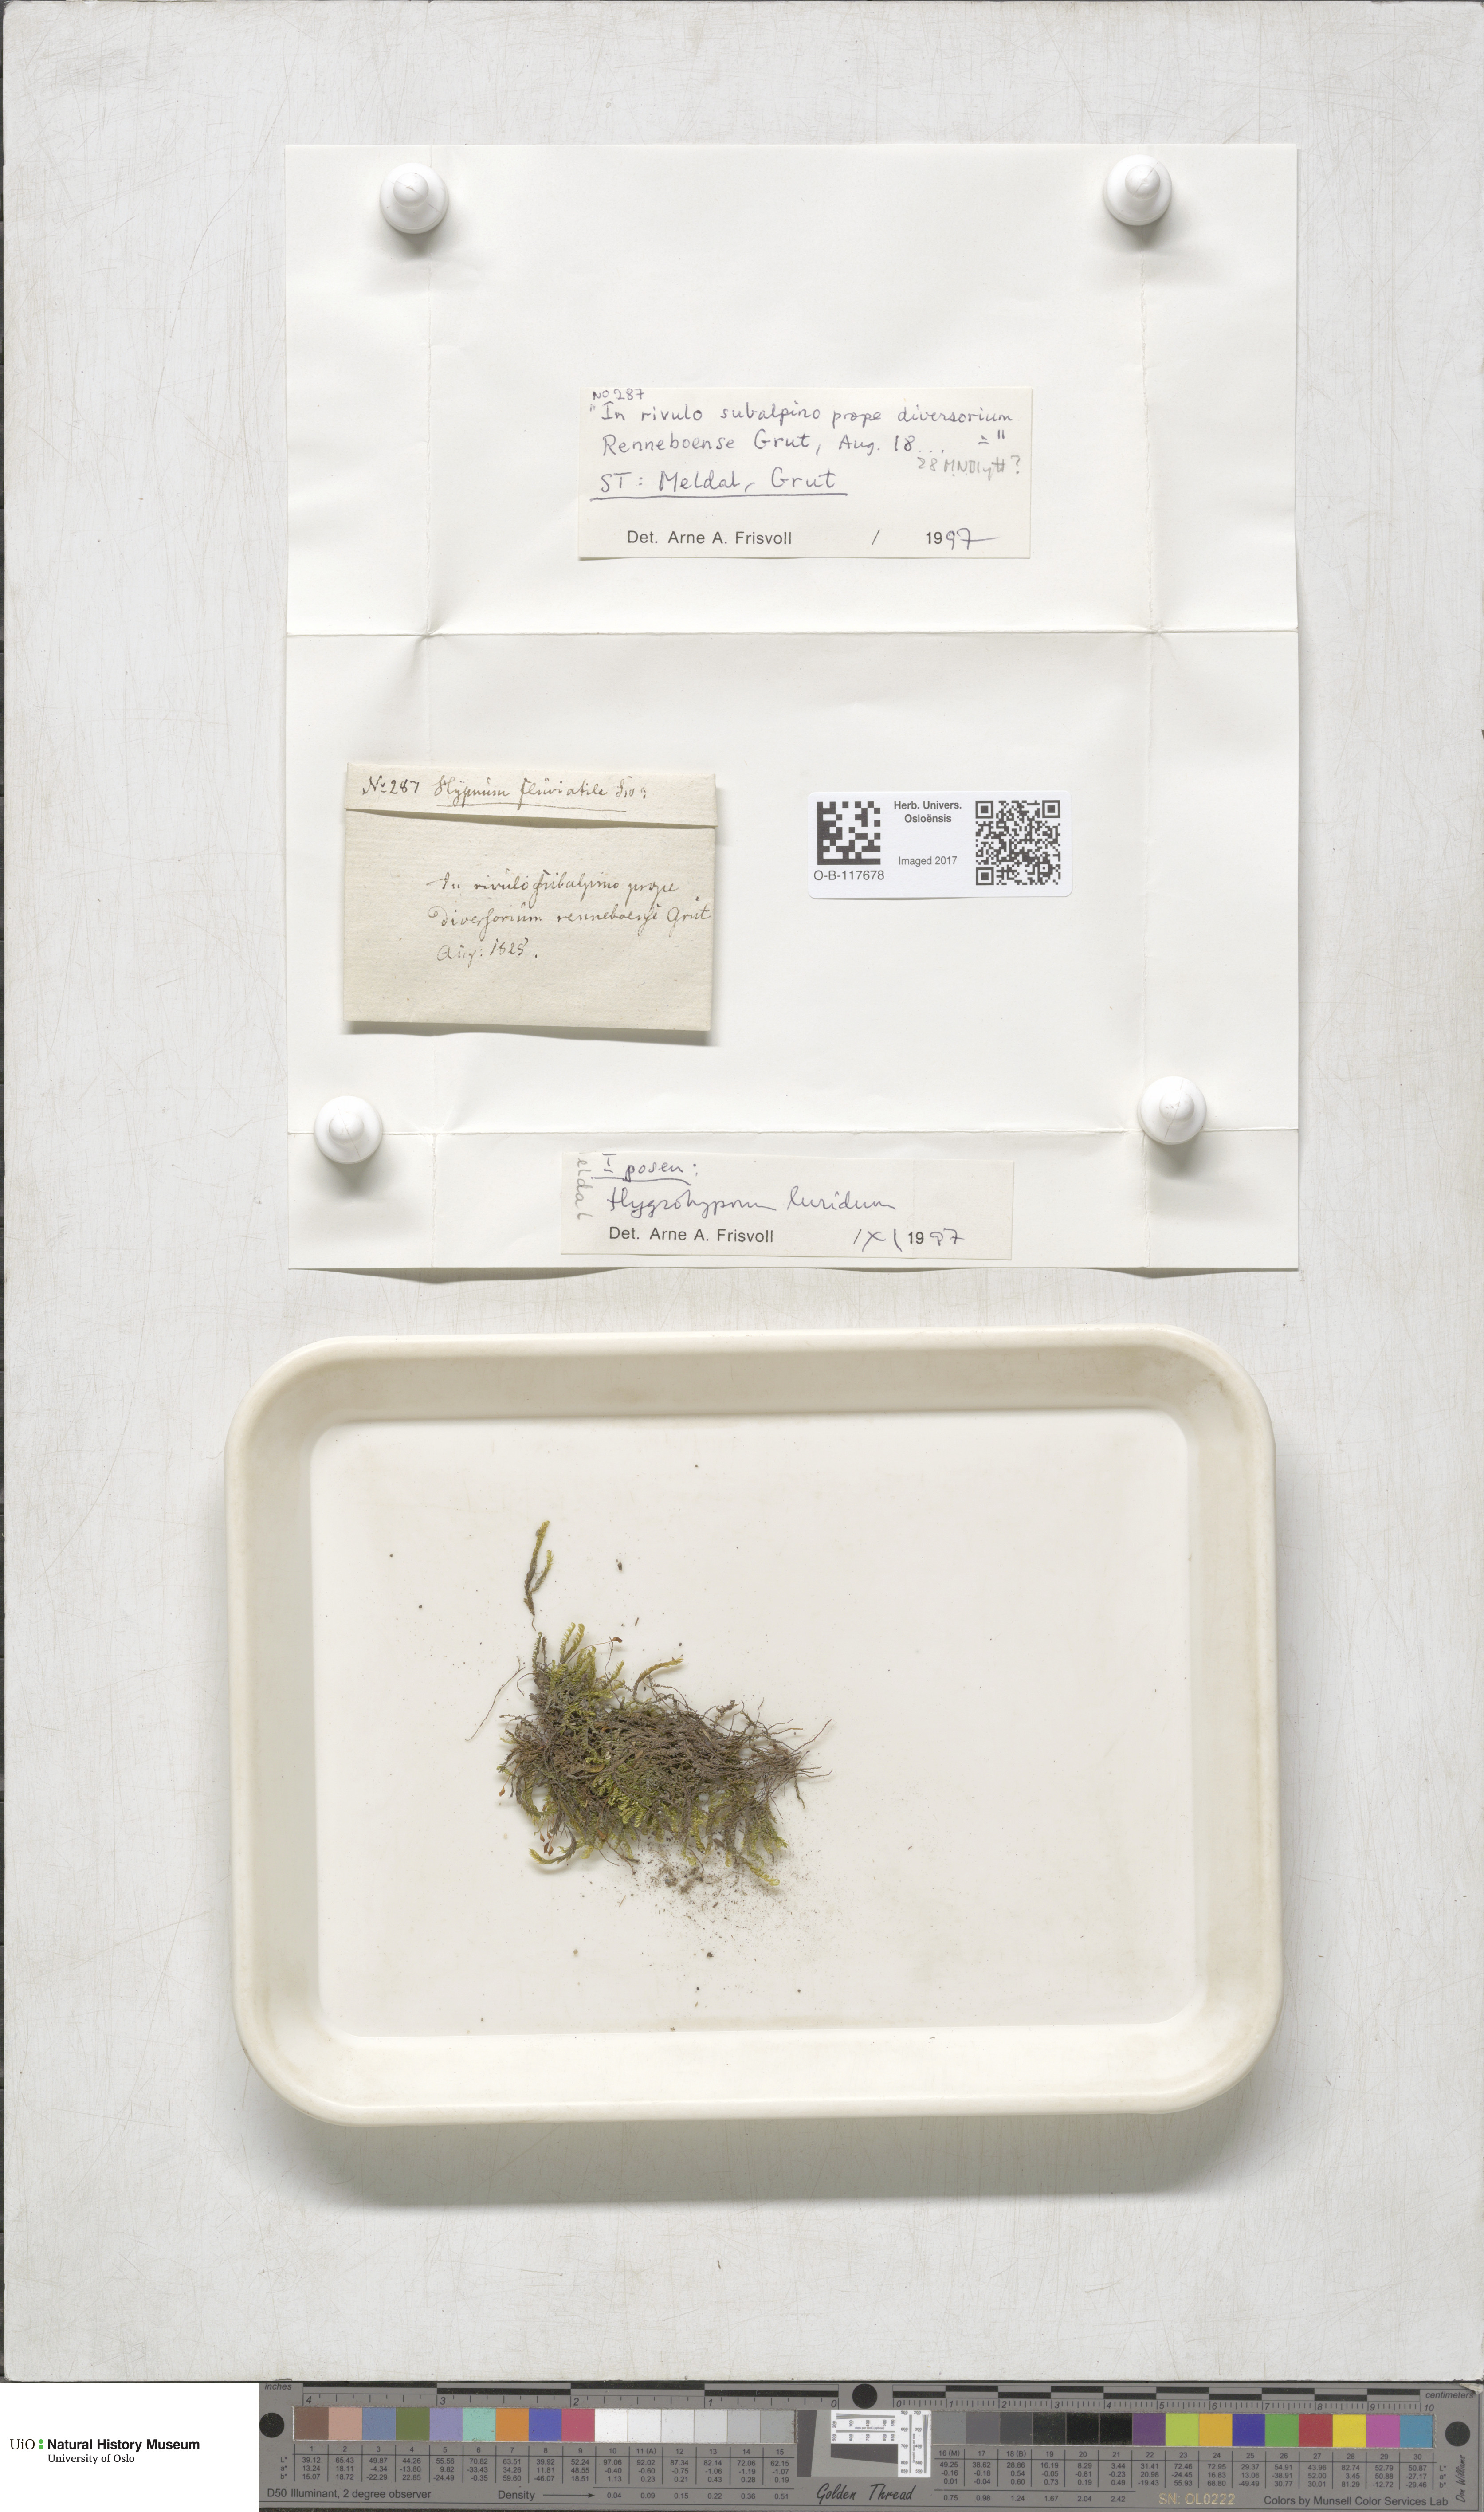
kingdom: Plantae
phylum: Bryophyta
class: Bryopsida
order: Hypnales
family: Amblystegiaceae
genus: Hygrohypnum
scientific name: Hygrohypnum luridum
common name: Drab brook moss
